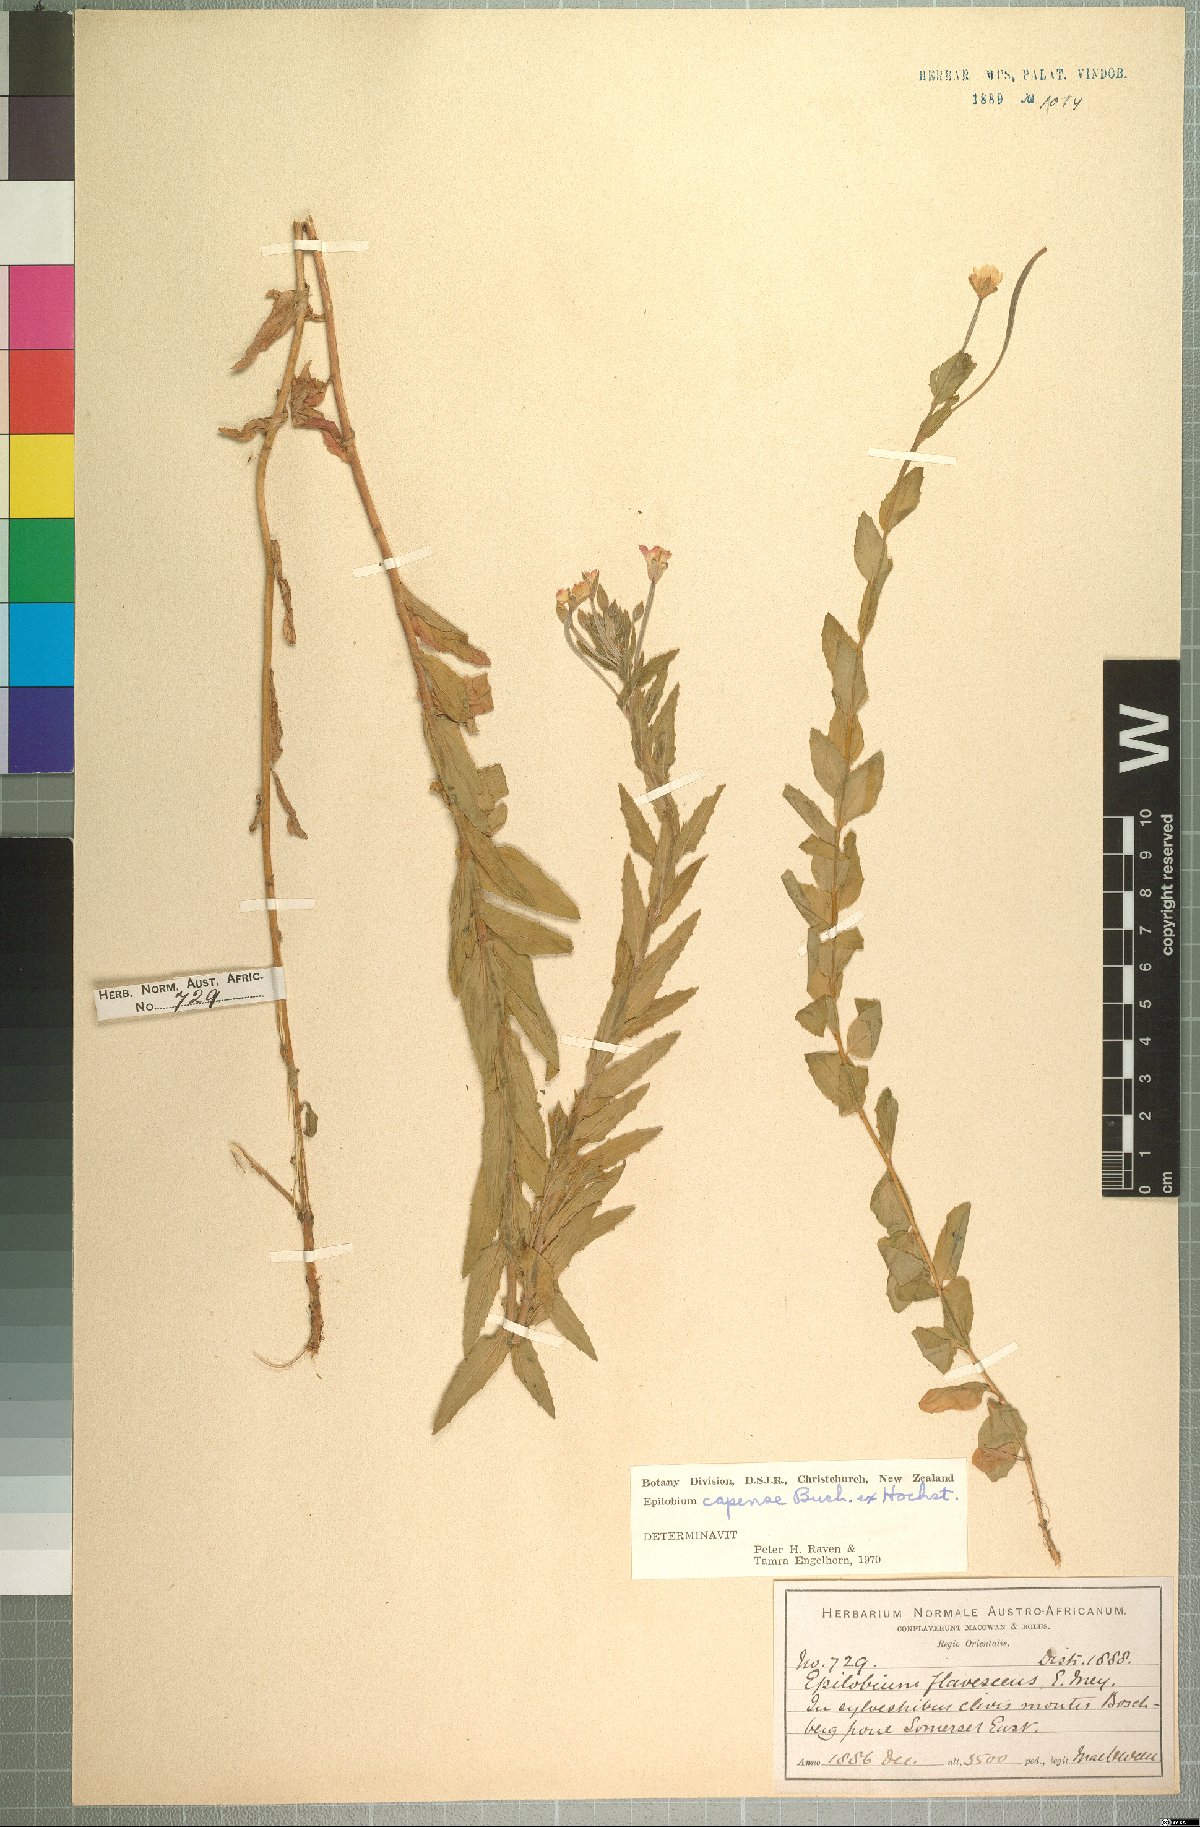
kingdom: Plantae
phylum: Tracheophyta
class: Magnoliopsida
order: Myrtales
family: Onagraceae
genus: Epilobium
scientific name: Epilobium capense
